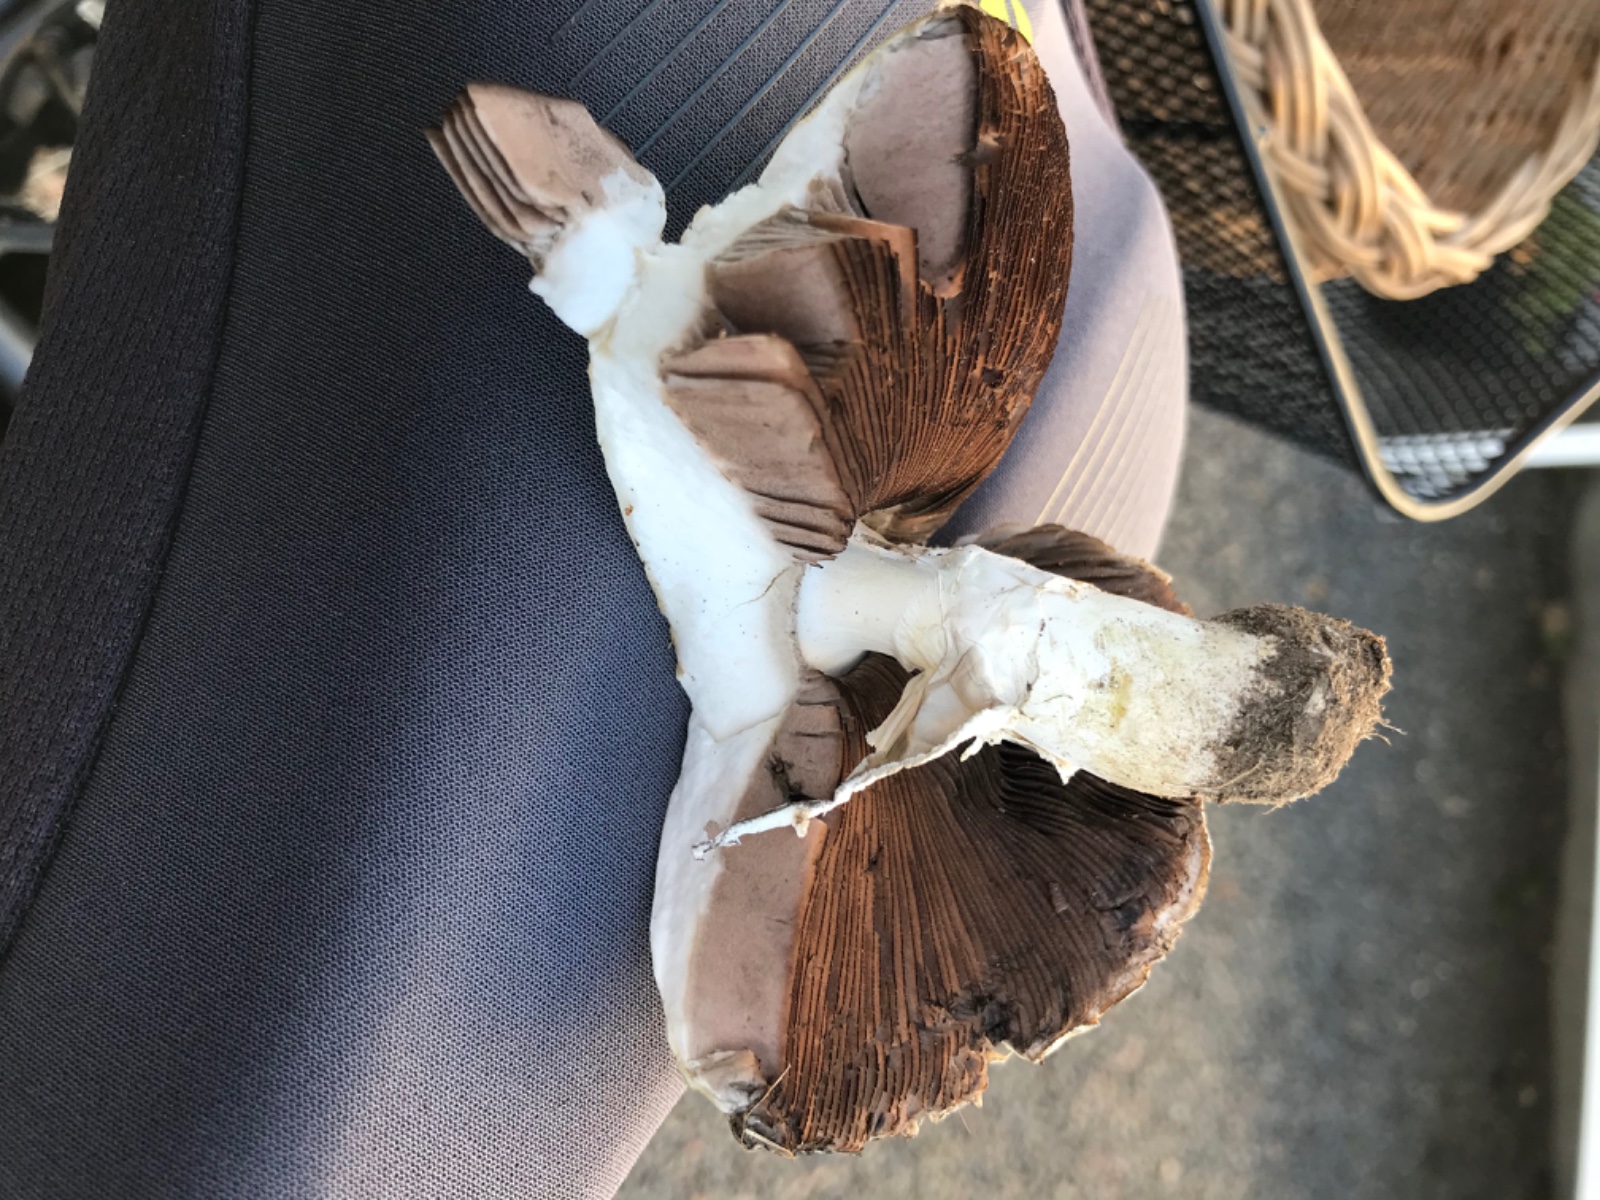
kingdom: Fungi
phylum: Basidiomycota
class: Agaricomycetes
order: Agaricales
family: Agaricaceae
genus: Agaricus
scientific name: Agaricus xanthodermus
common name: karbol-champignon
